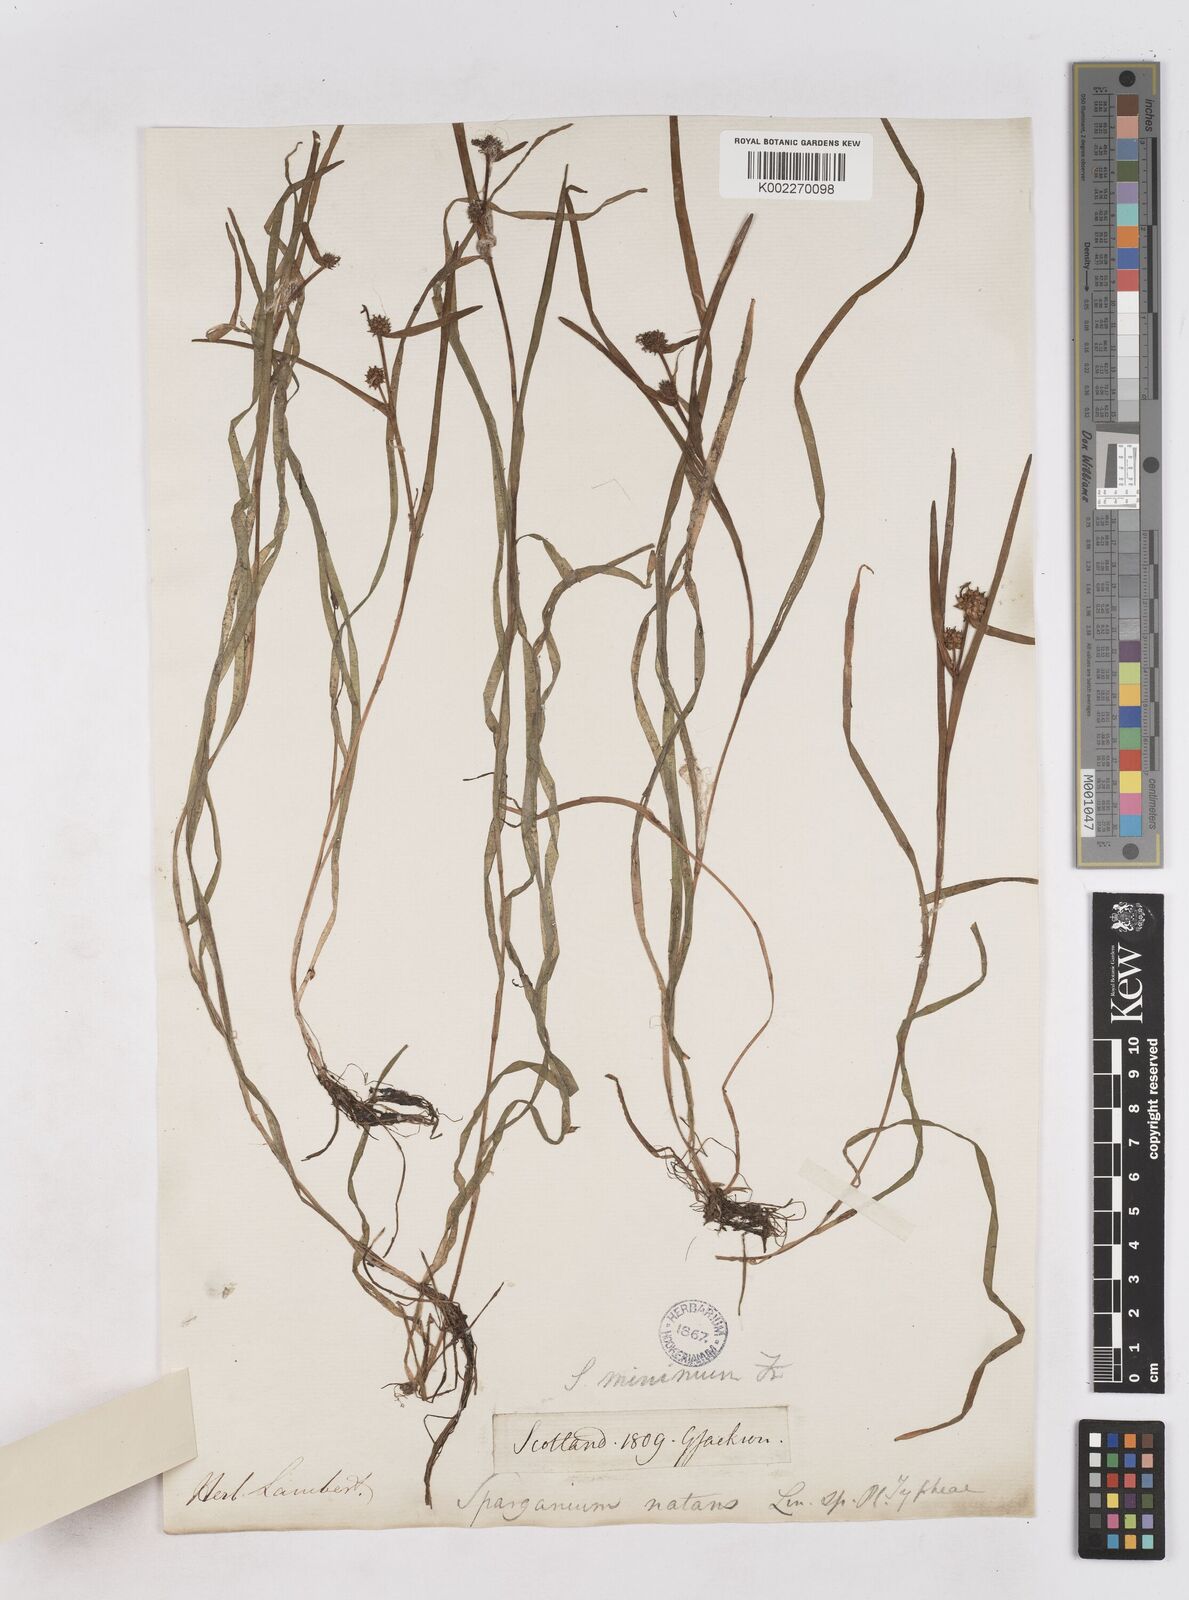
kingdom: Plantae
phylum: Tracheophyta
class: Liliopsida
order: Poales
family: Typhaceae
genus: Sparganium
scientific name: Sparganium natans
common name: Least bur-reed
